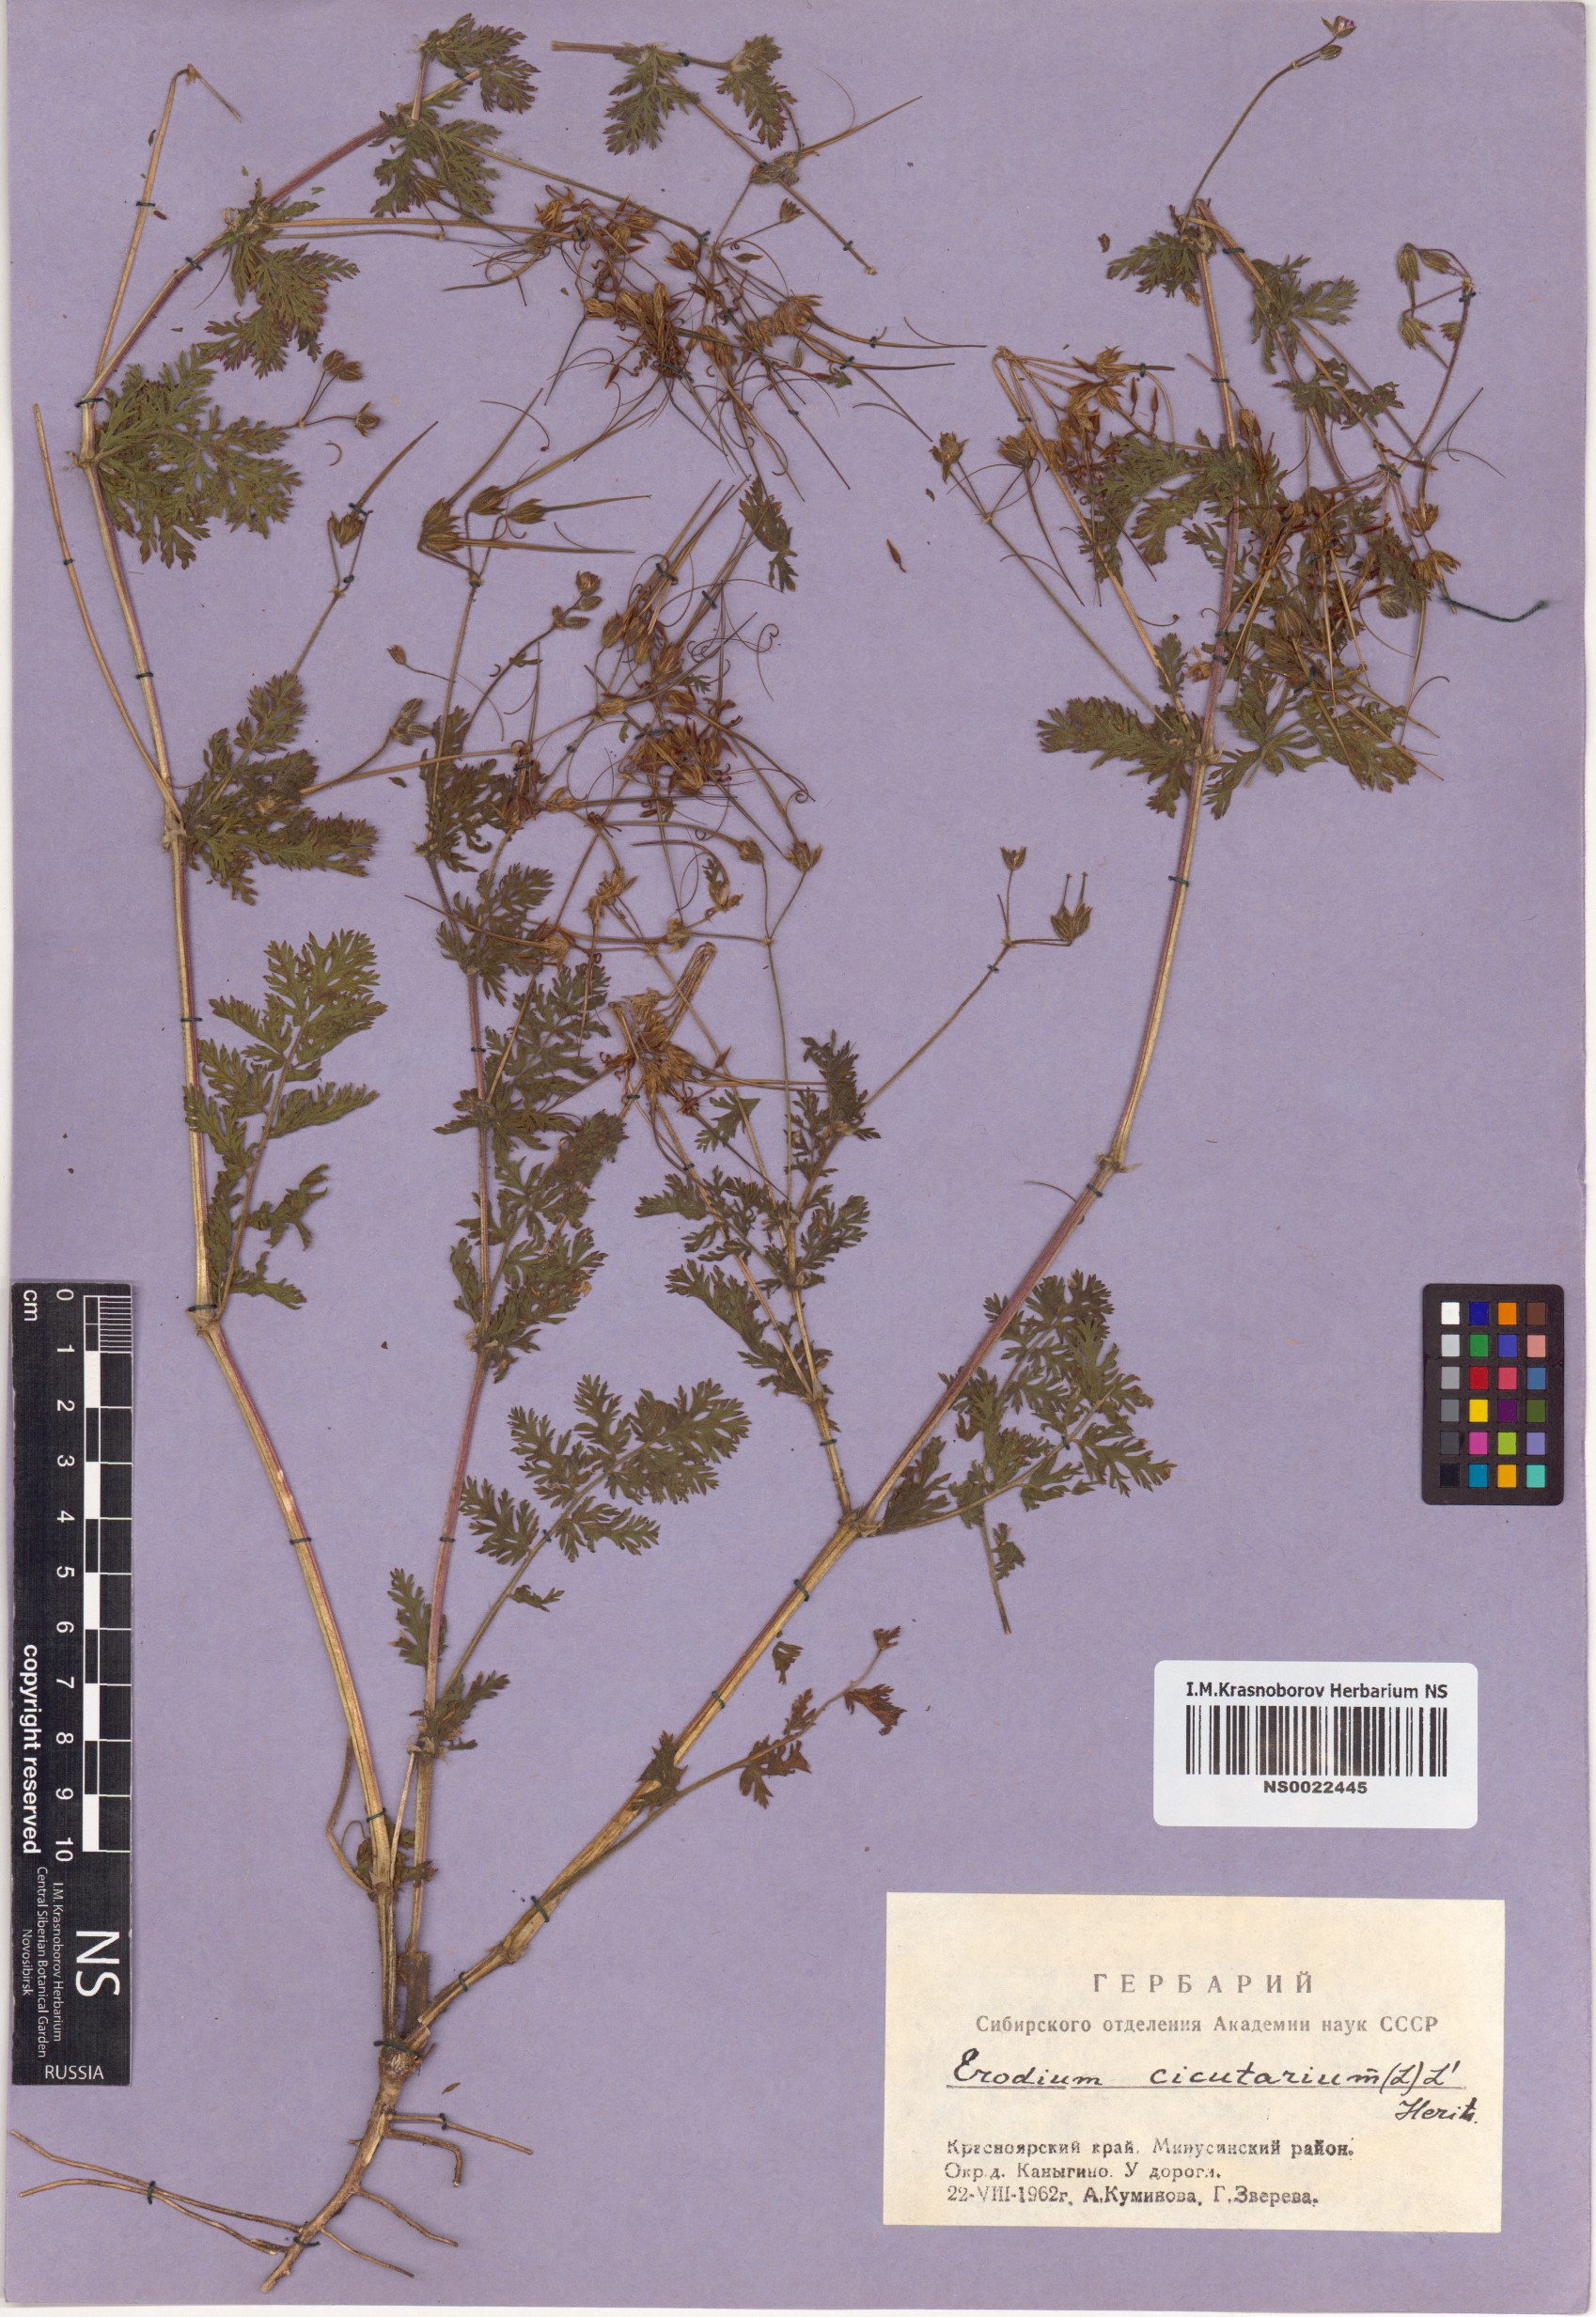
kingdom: Plantae
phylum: Tracheophyta
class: Magnoliopsida
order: Geraniales
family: Geraniaceae
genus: Erodium
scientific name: Erodium cicutarium
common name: Common stork's-bill
